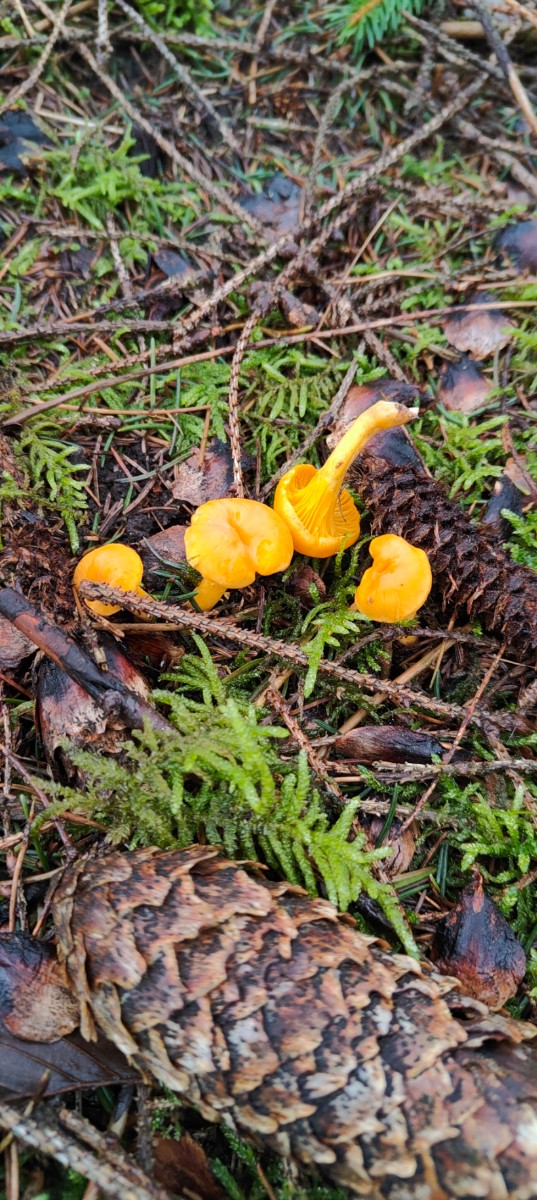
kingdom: Fungi
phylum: Basidiomycota
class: Agaricomycetes
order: Cantharellales
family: Hydnaceae
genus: Cantharellus
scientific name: Cantharellus cibarius
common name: almindelig kantarel
